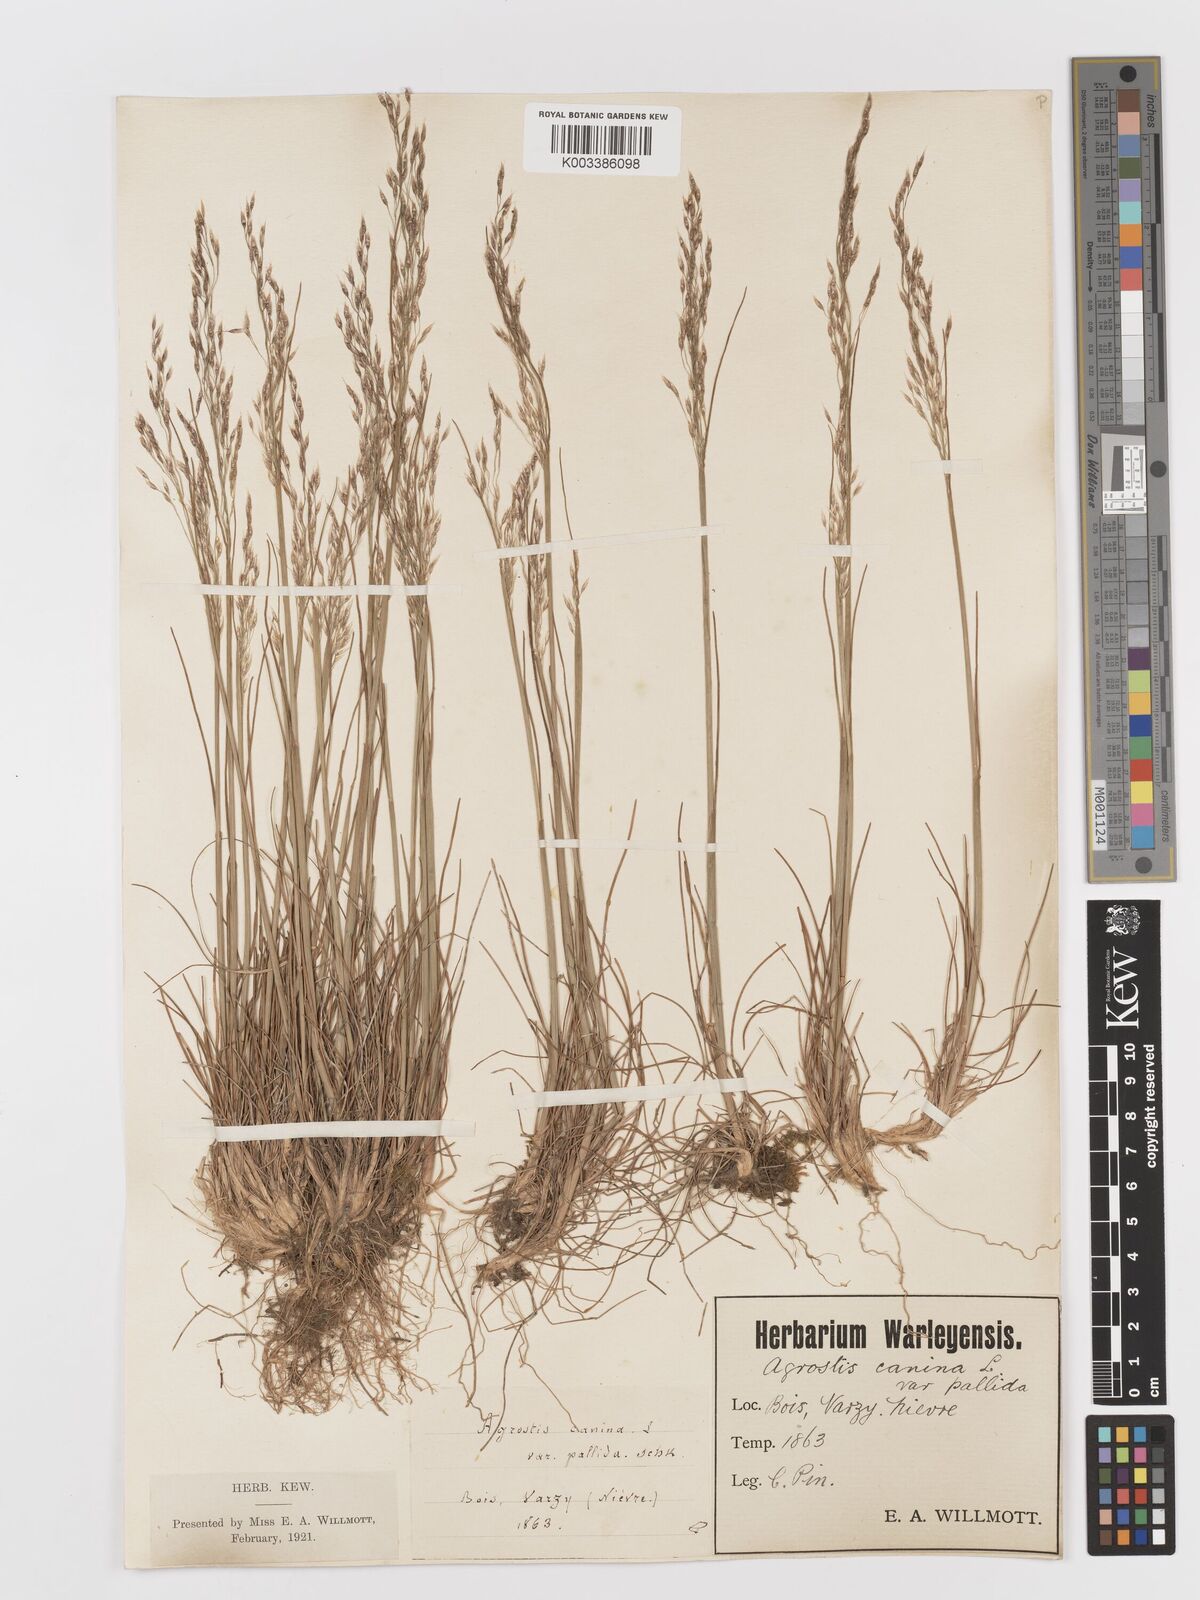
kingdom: Plantae
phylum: Tracheophyta
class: Liliopsida
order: Poales
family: Poaceae
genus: Avenella
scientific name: Avenella flexuosa
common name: Wavy hairgrass
